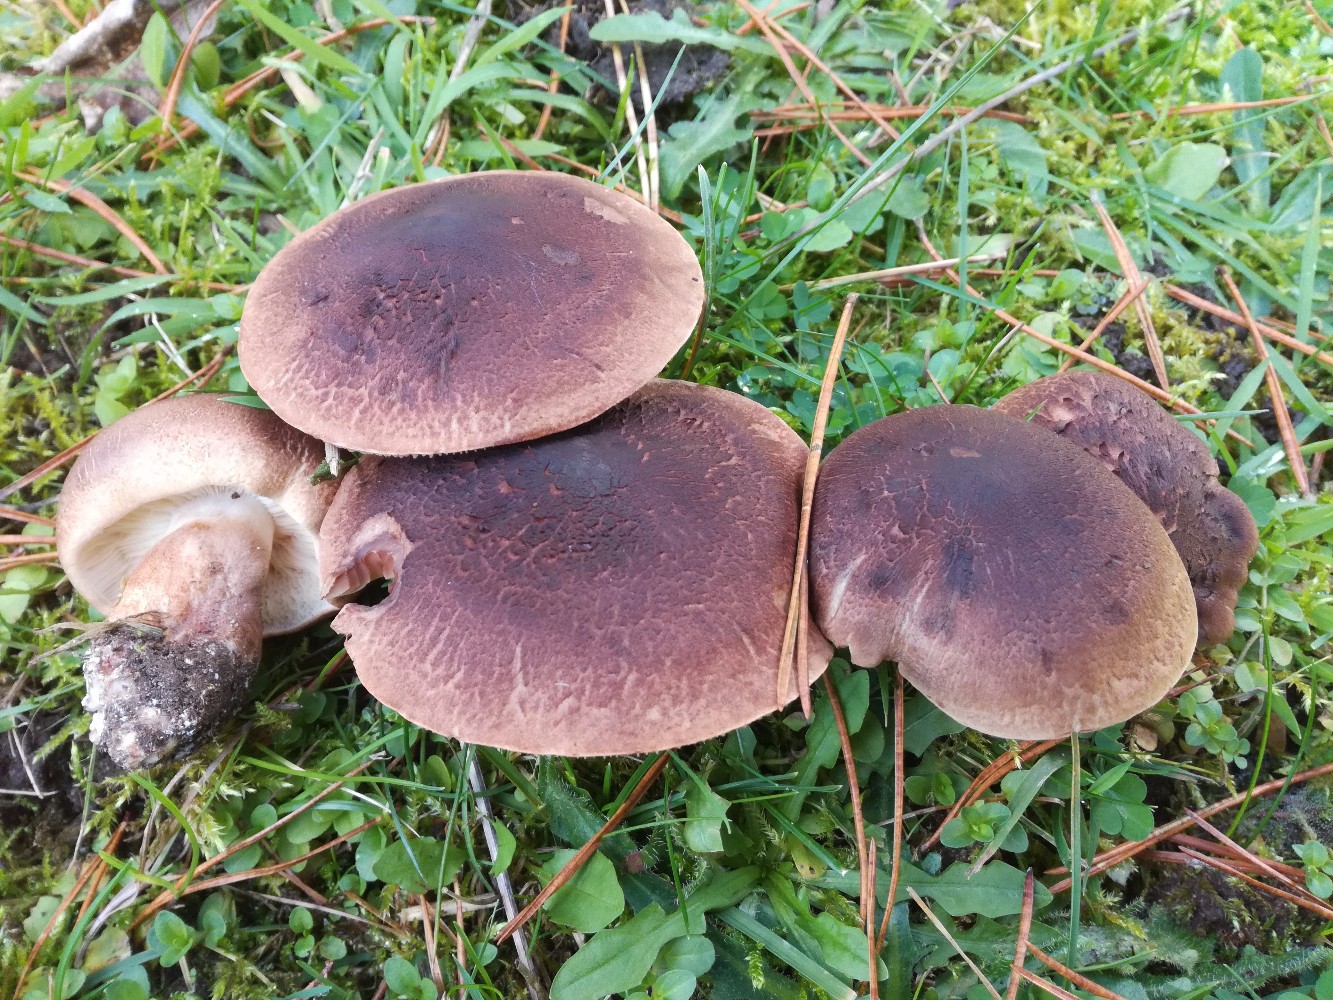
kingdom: Fungi
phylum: Basidiomycota
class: Agaricomycetes
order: Agaricales
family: Tricholomataceae
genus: Tricholoma
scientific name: Tricholoma imbricatum
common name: skællet ridderhat
